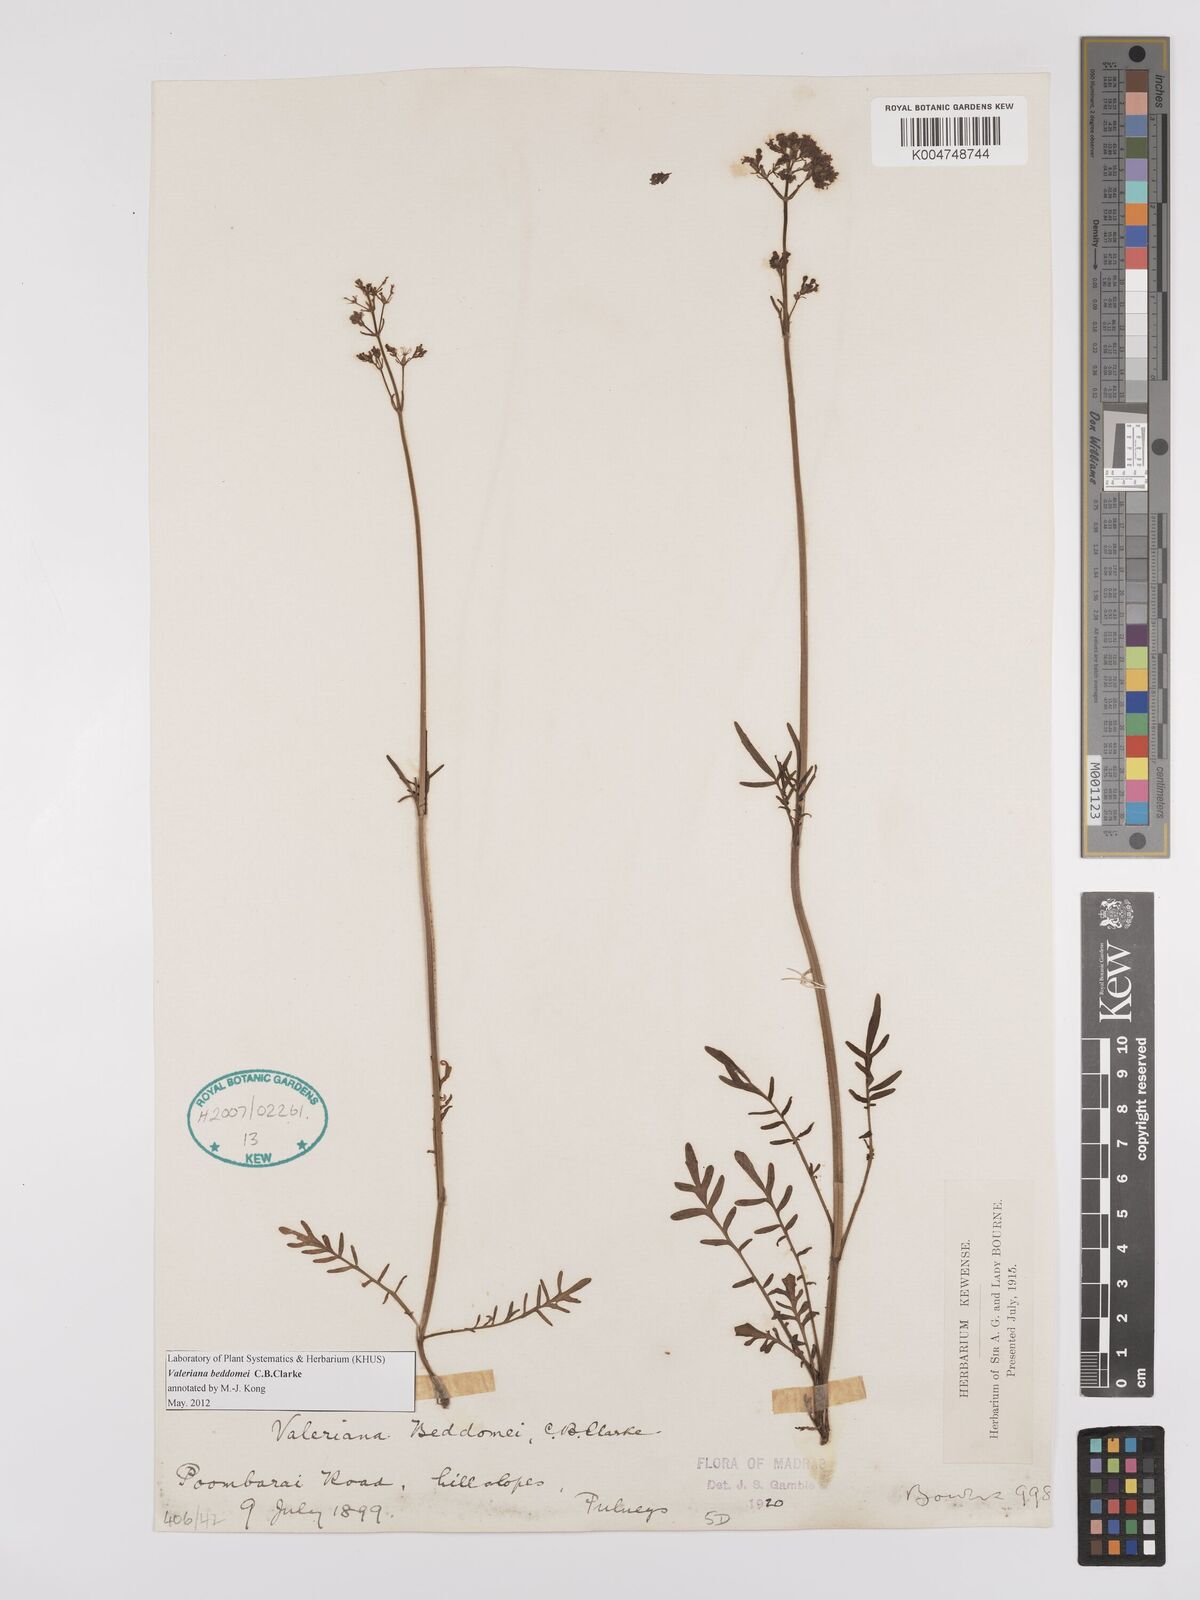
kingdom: Plantae
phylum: Tracheophyta
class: Magnoliopsida
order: Dipsacales
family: Caprifoliaceae
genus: Valeriana
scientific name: Valeriana beddomei
